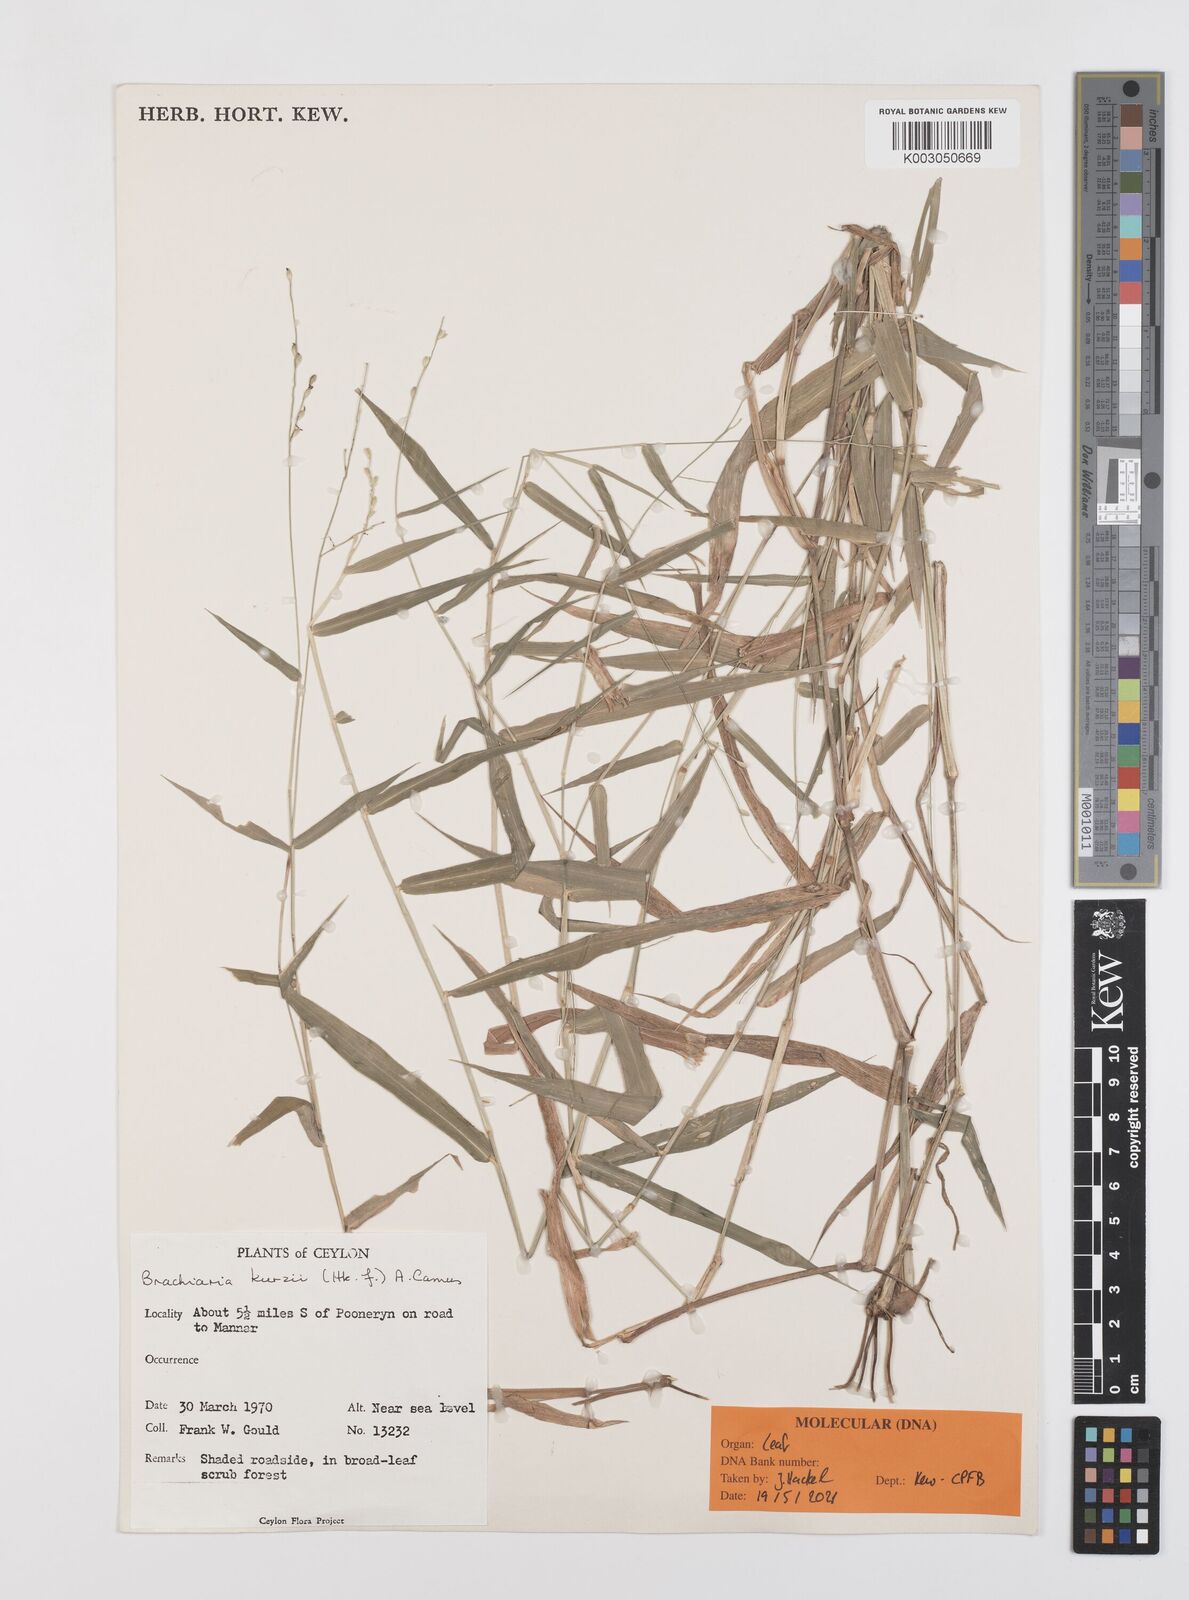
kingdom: Plantae
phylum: Tracheophyta
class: Liliopsida
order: Poales
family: Poaceae
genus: Urochloa
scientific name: Urochloa kurzii
